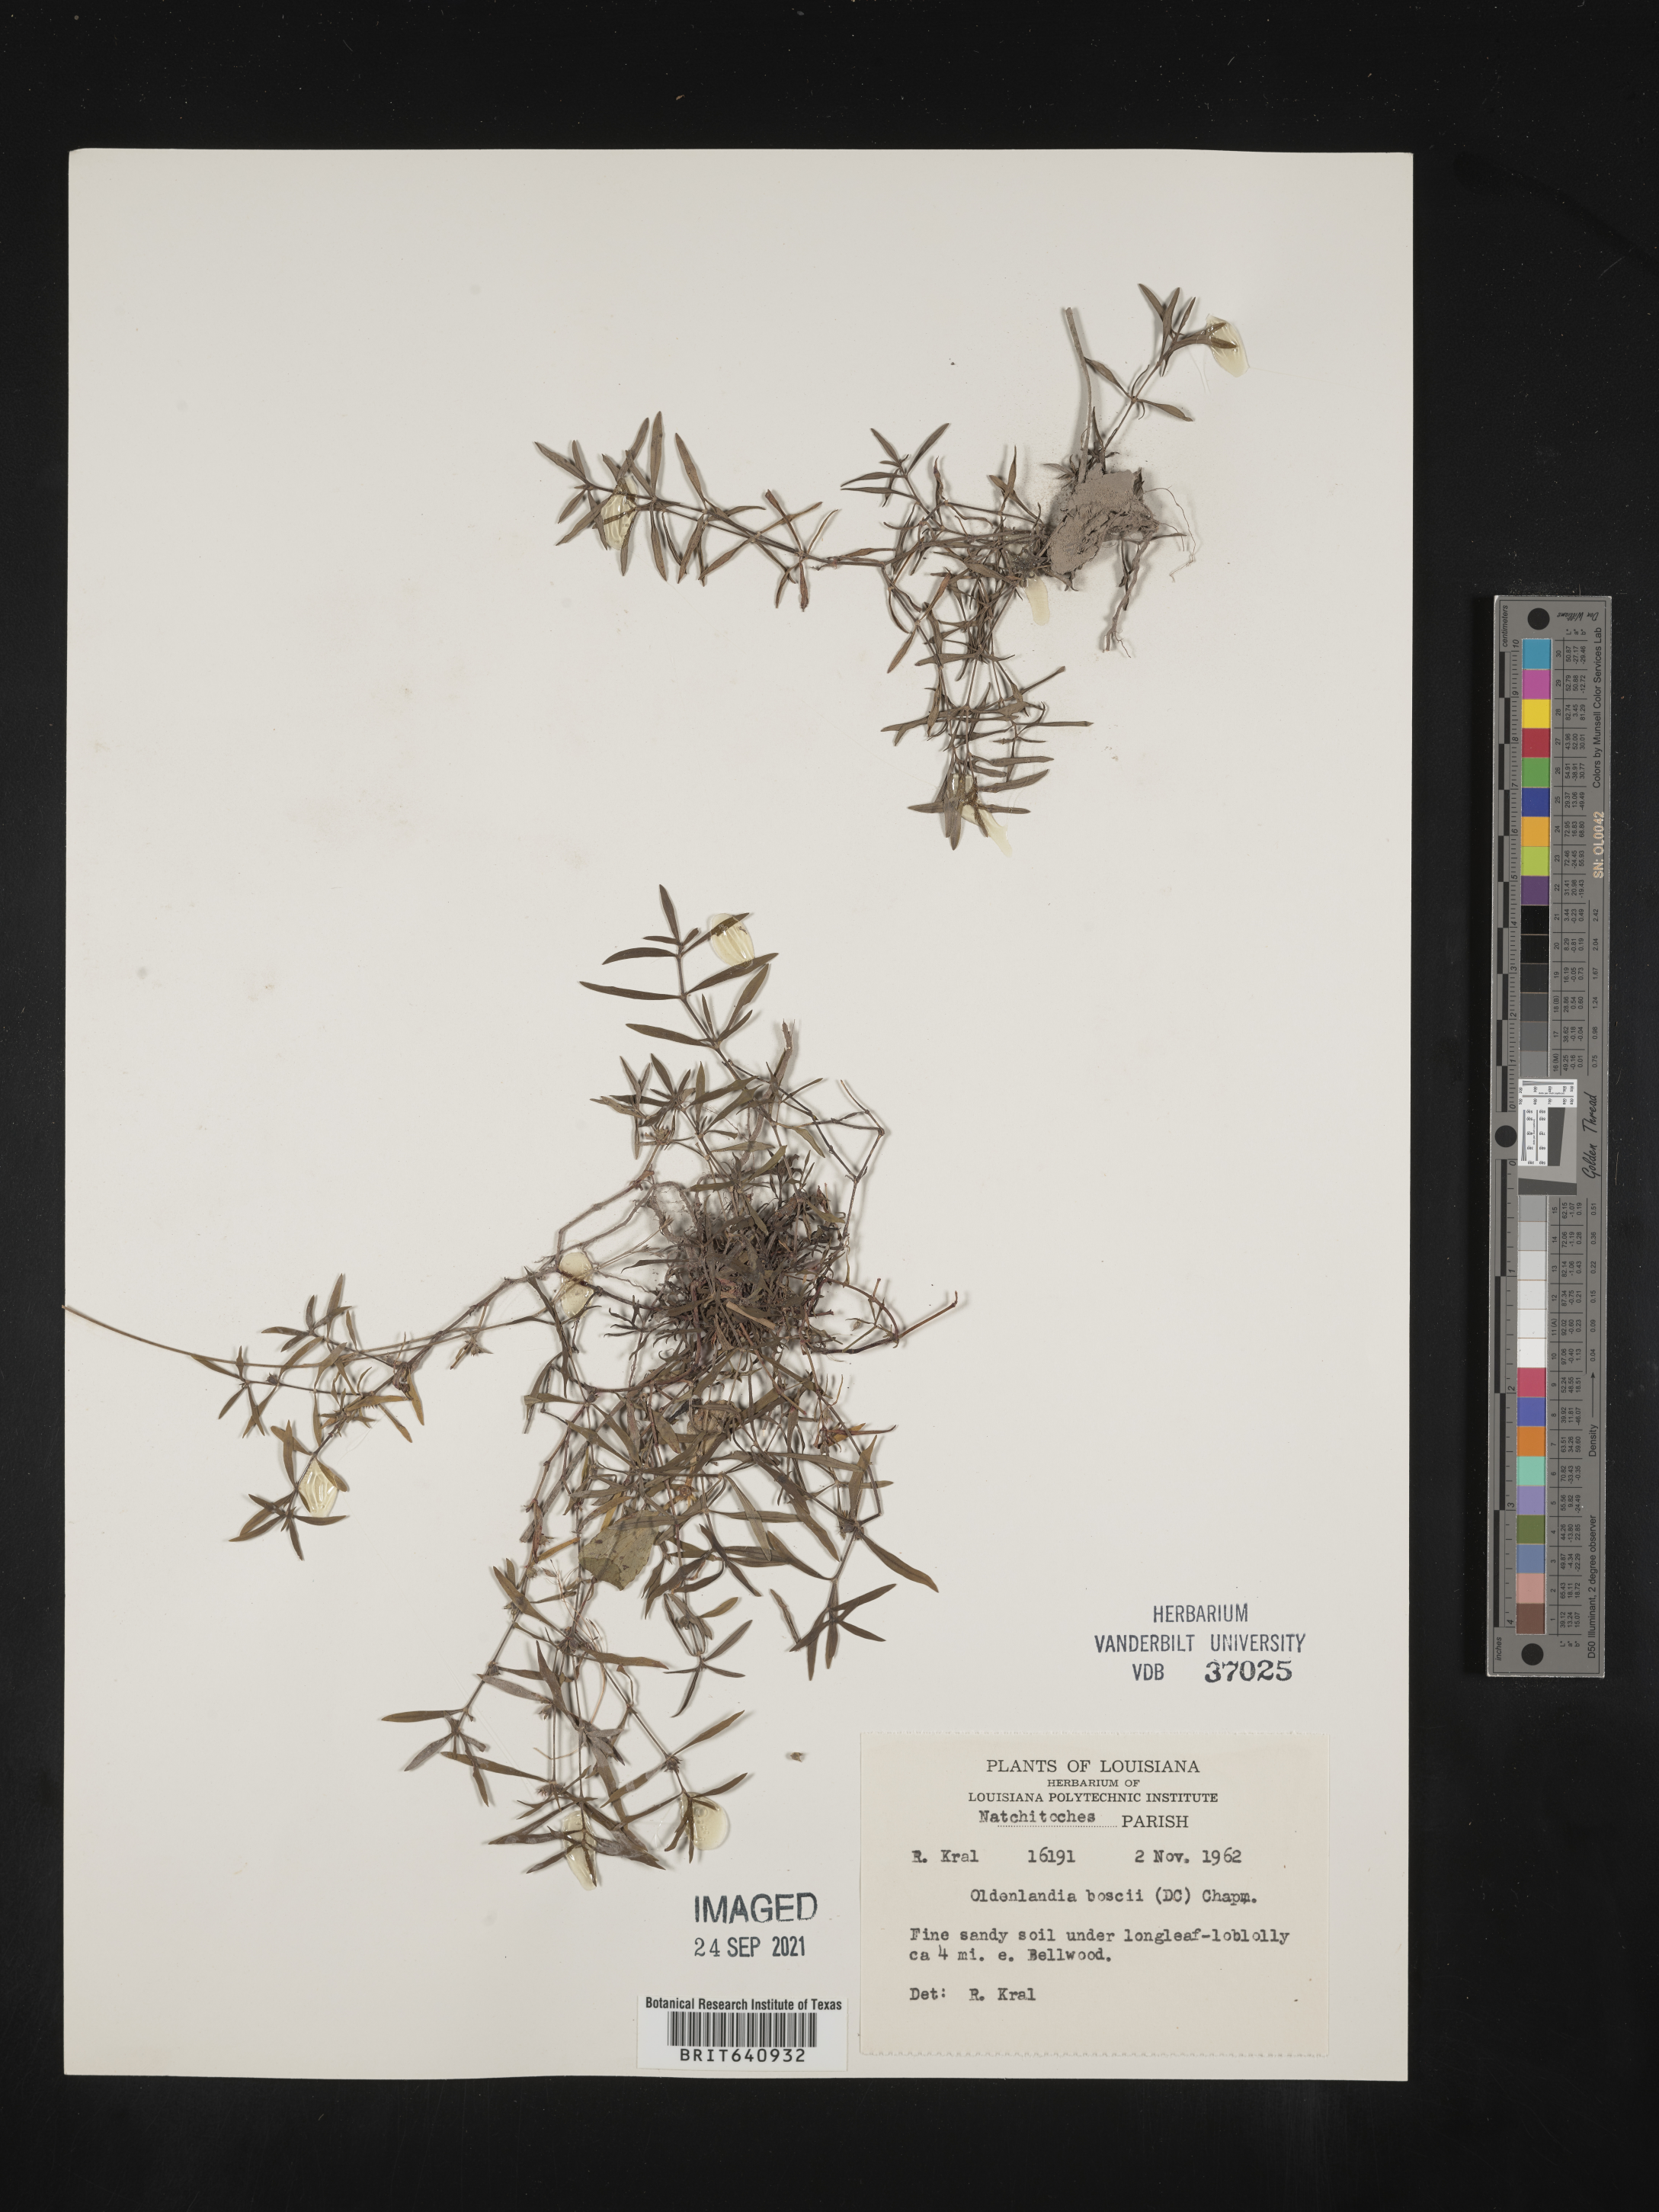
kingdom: Plantae
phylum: Tracheophyta
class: Magnoliopsida
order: Gentianales
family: Rubiaceae
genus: Oldenlandia
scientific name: Oldenlandia boscii
